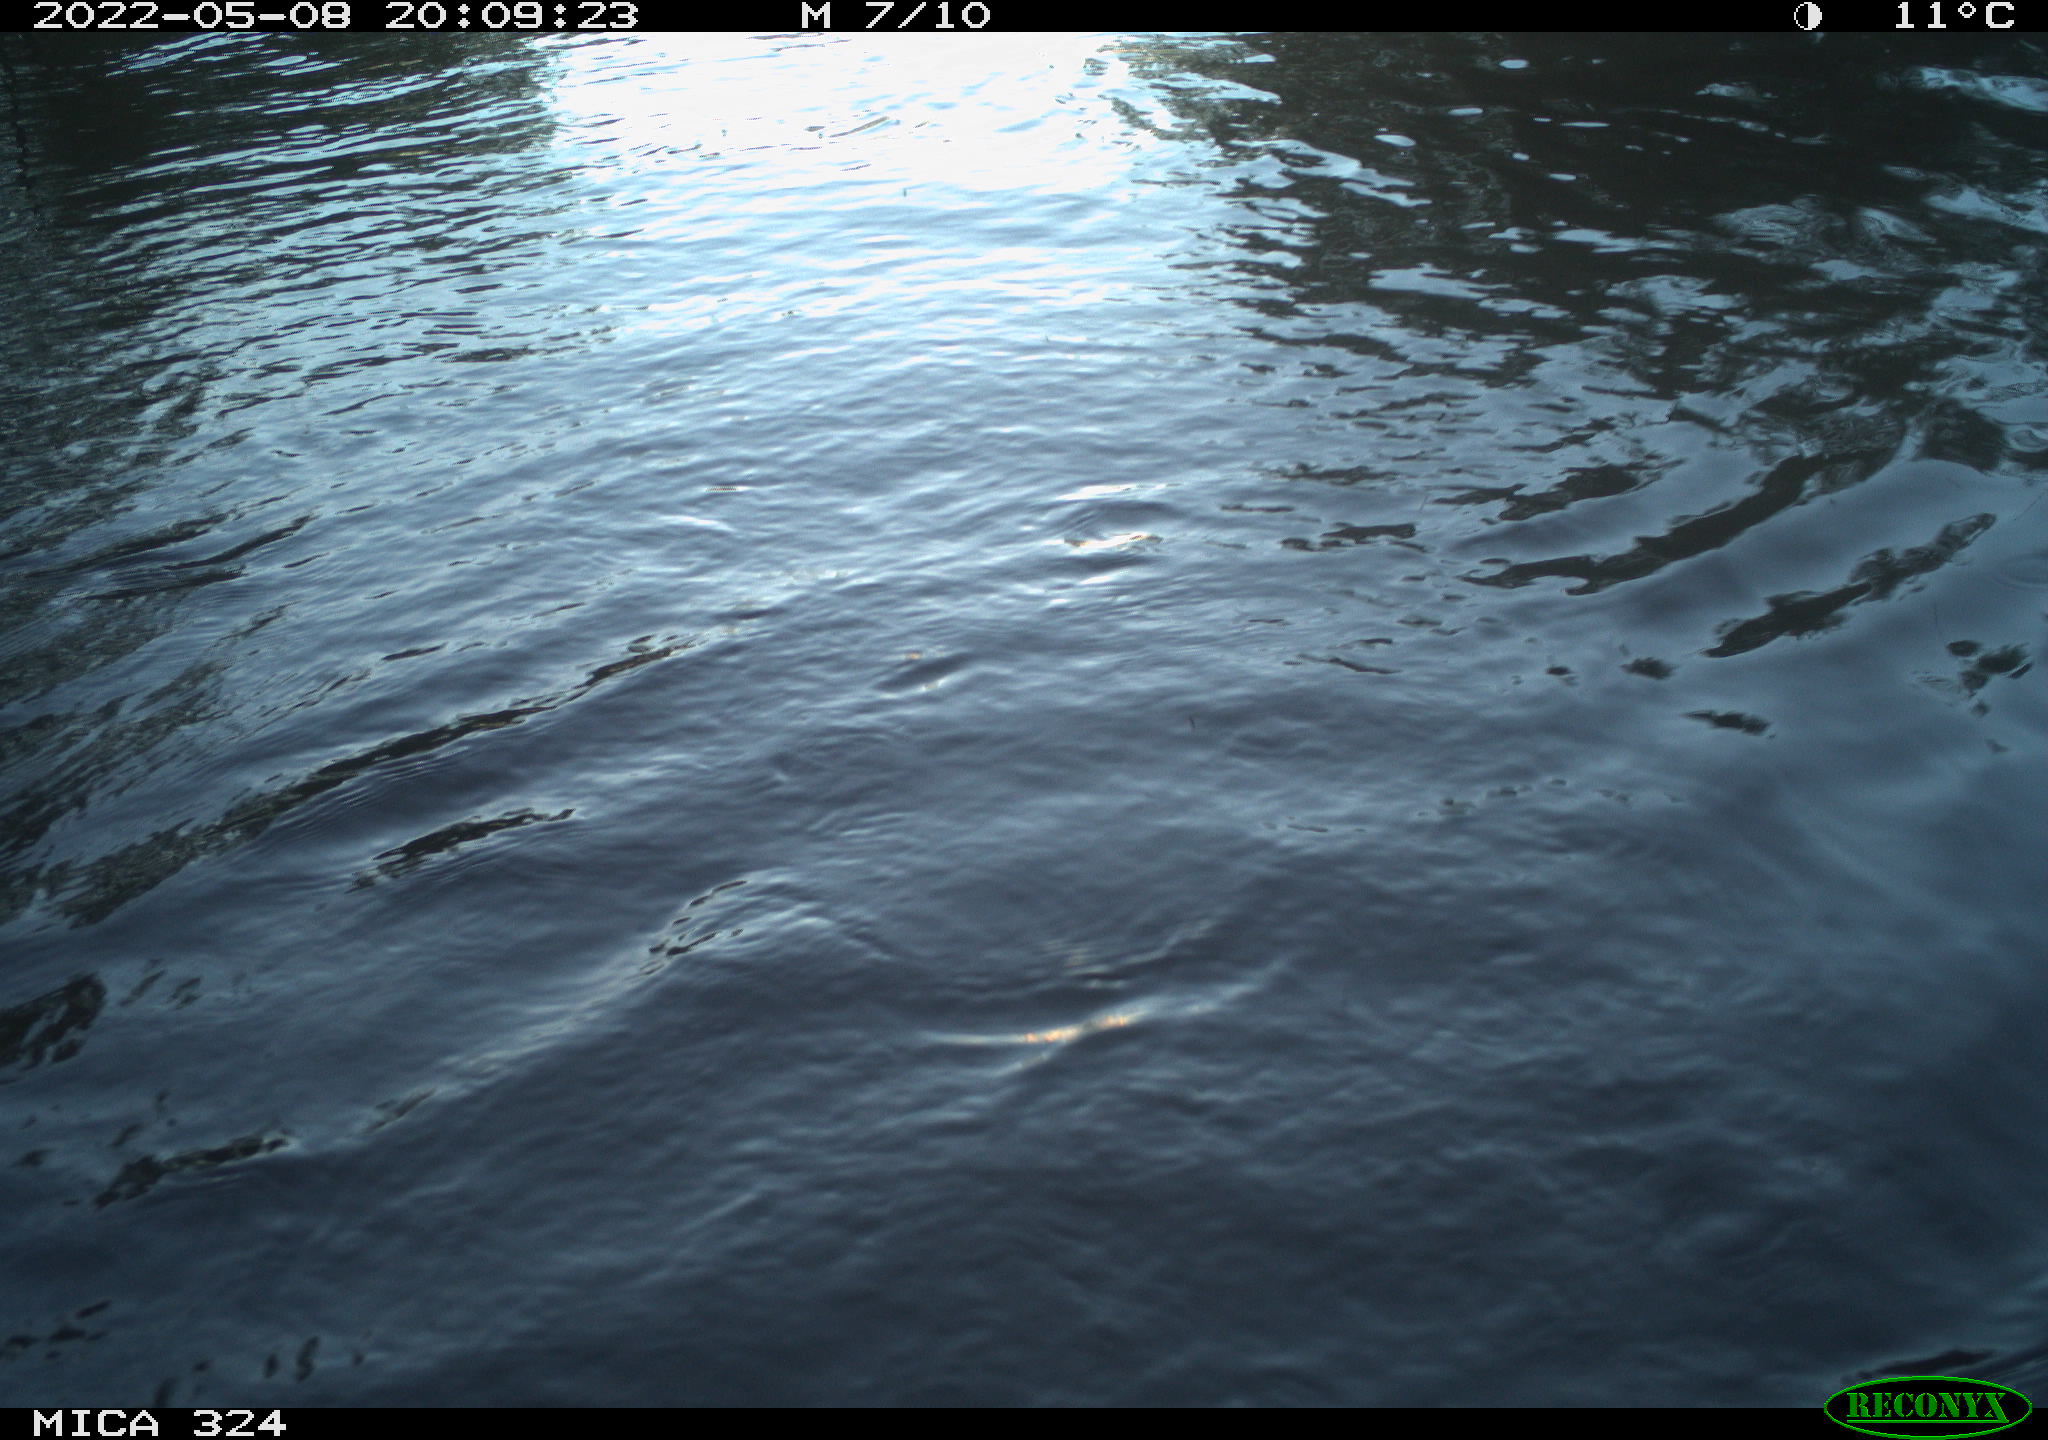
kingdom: Animalia
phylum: Chordata
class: Aves
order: Anseriformes
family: Anatidae
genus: Anas
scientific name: Anas platyrhynchos
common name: Mallard
